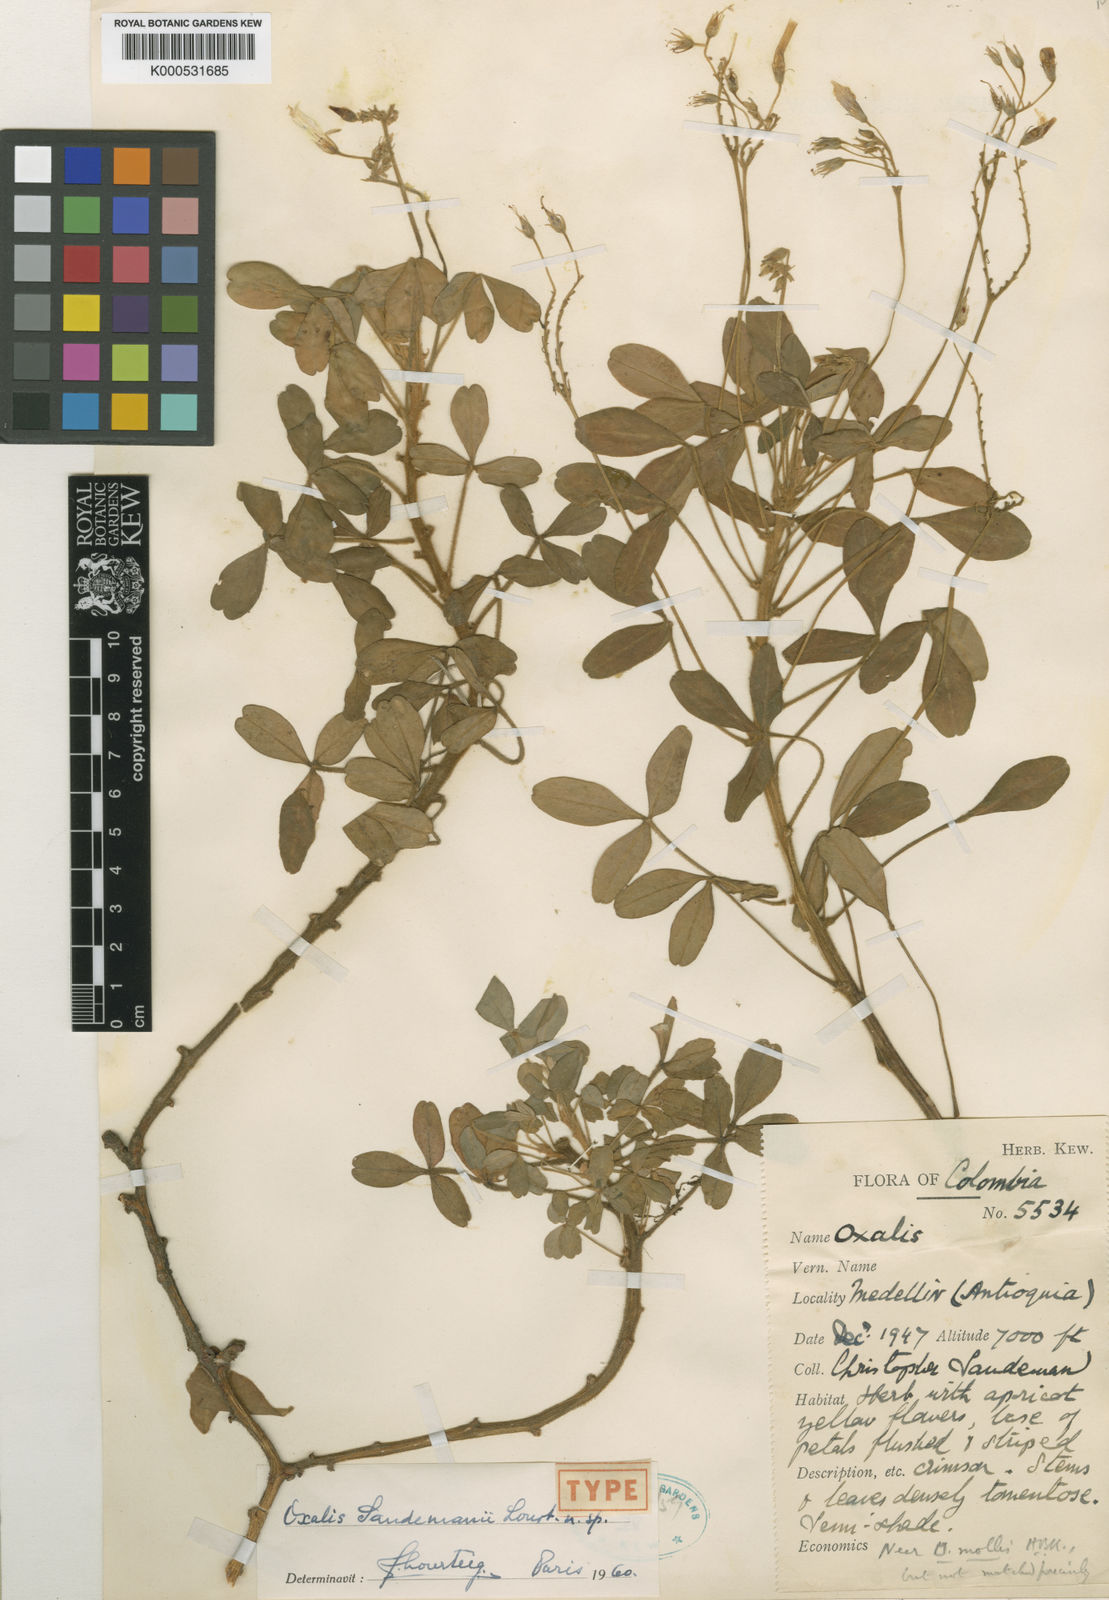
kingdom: Plantae
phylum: Tracheophyta
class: Magnoliopsida
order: Oxalidales
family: Oxalidaceae
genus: Oxalis
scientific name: Oxalis sandemanii
